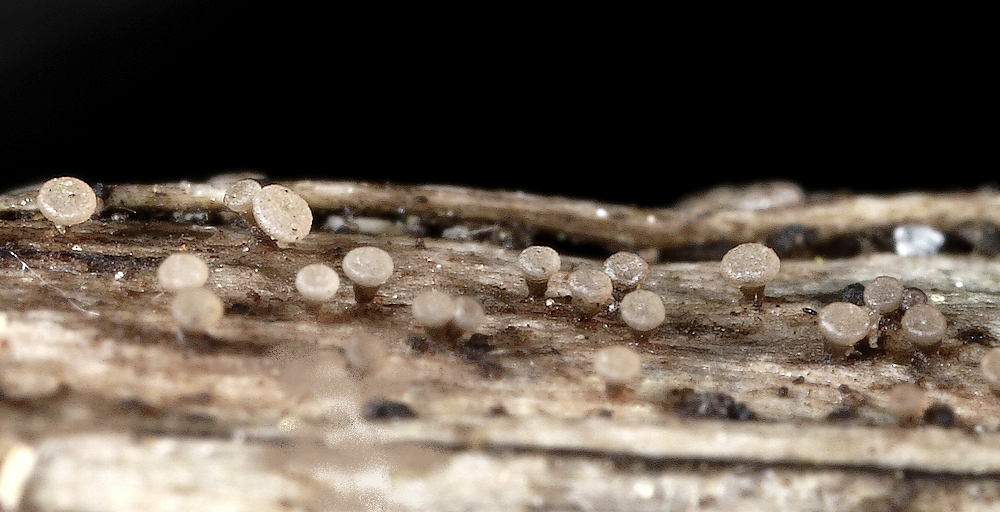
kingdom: Fungi
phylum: Ascomycota
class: Leotiomycetes
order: Helotiales
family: Pezizellaceae
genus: Allophylaria
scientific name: Allophylaria macrospora
